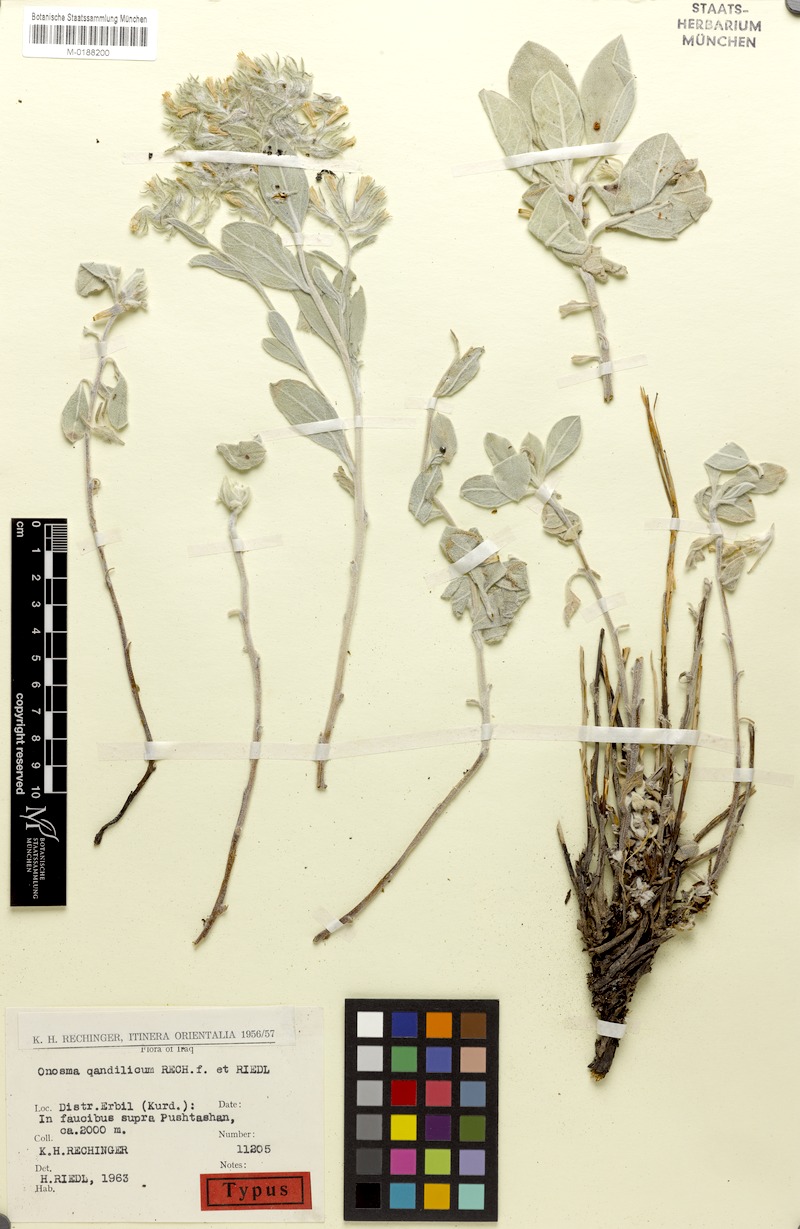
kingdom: Plantae
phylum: Tracheophyta
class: Magnoliopsida
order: Boraginales
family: Boraginaceae
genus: Onosma
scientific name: Onosma qandilica
